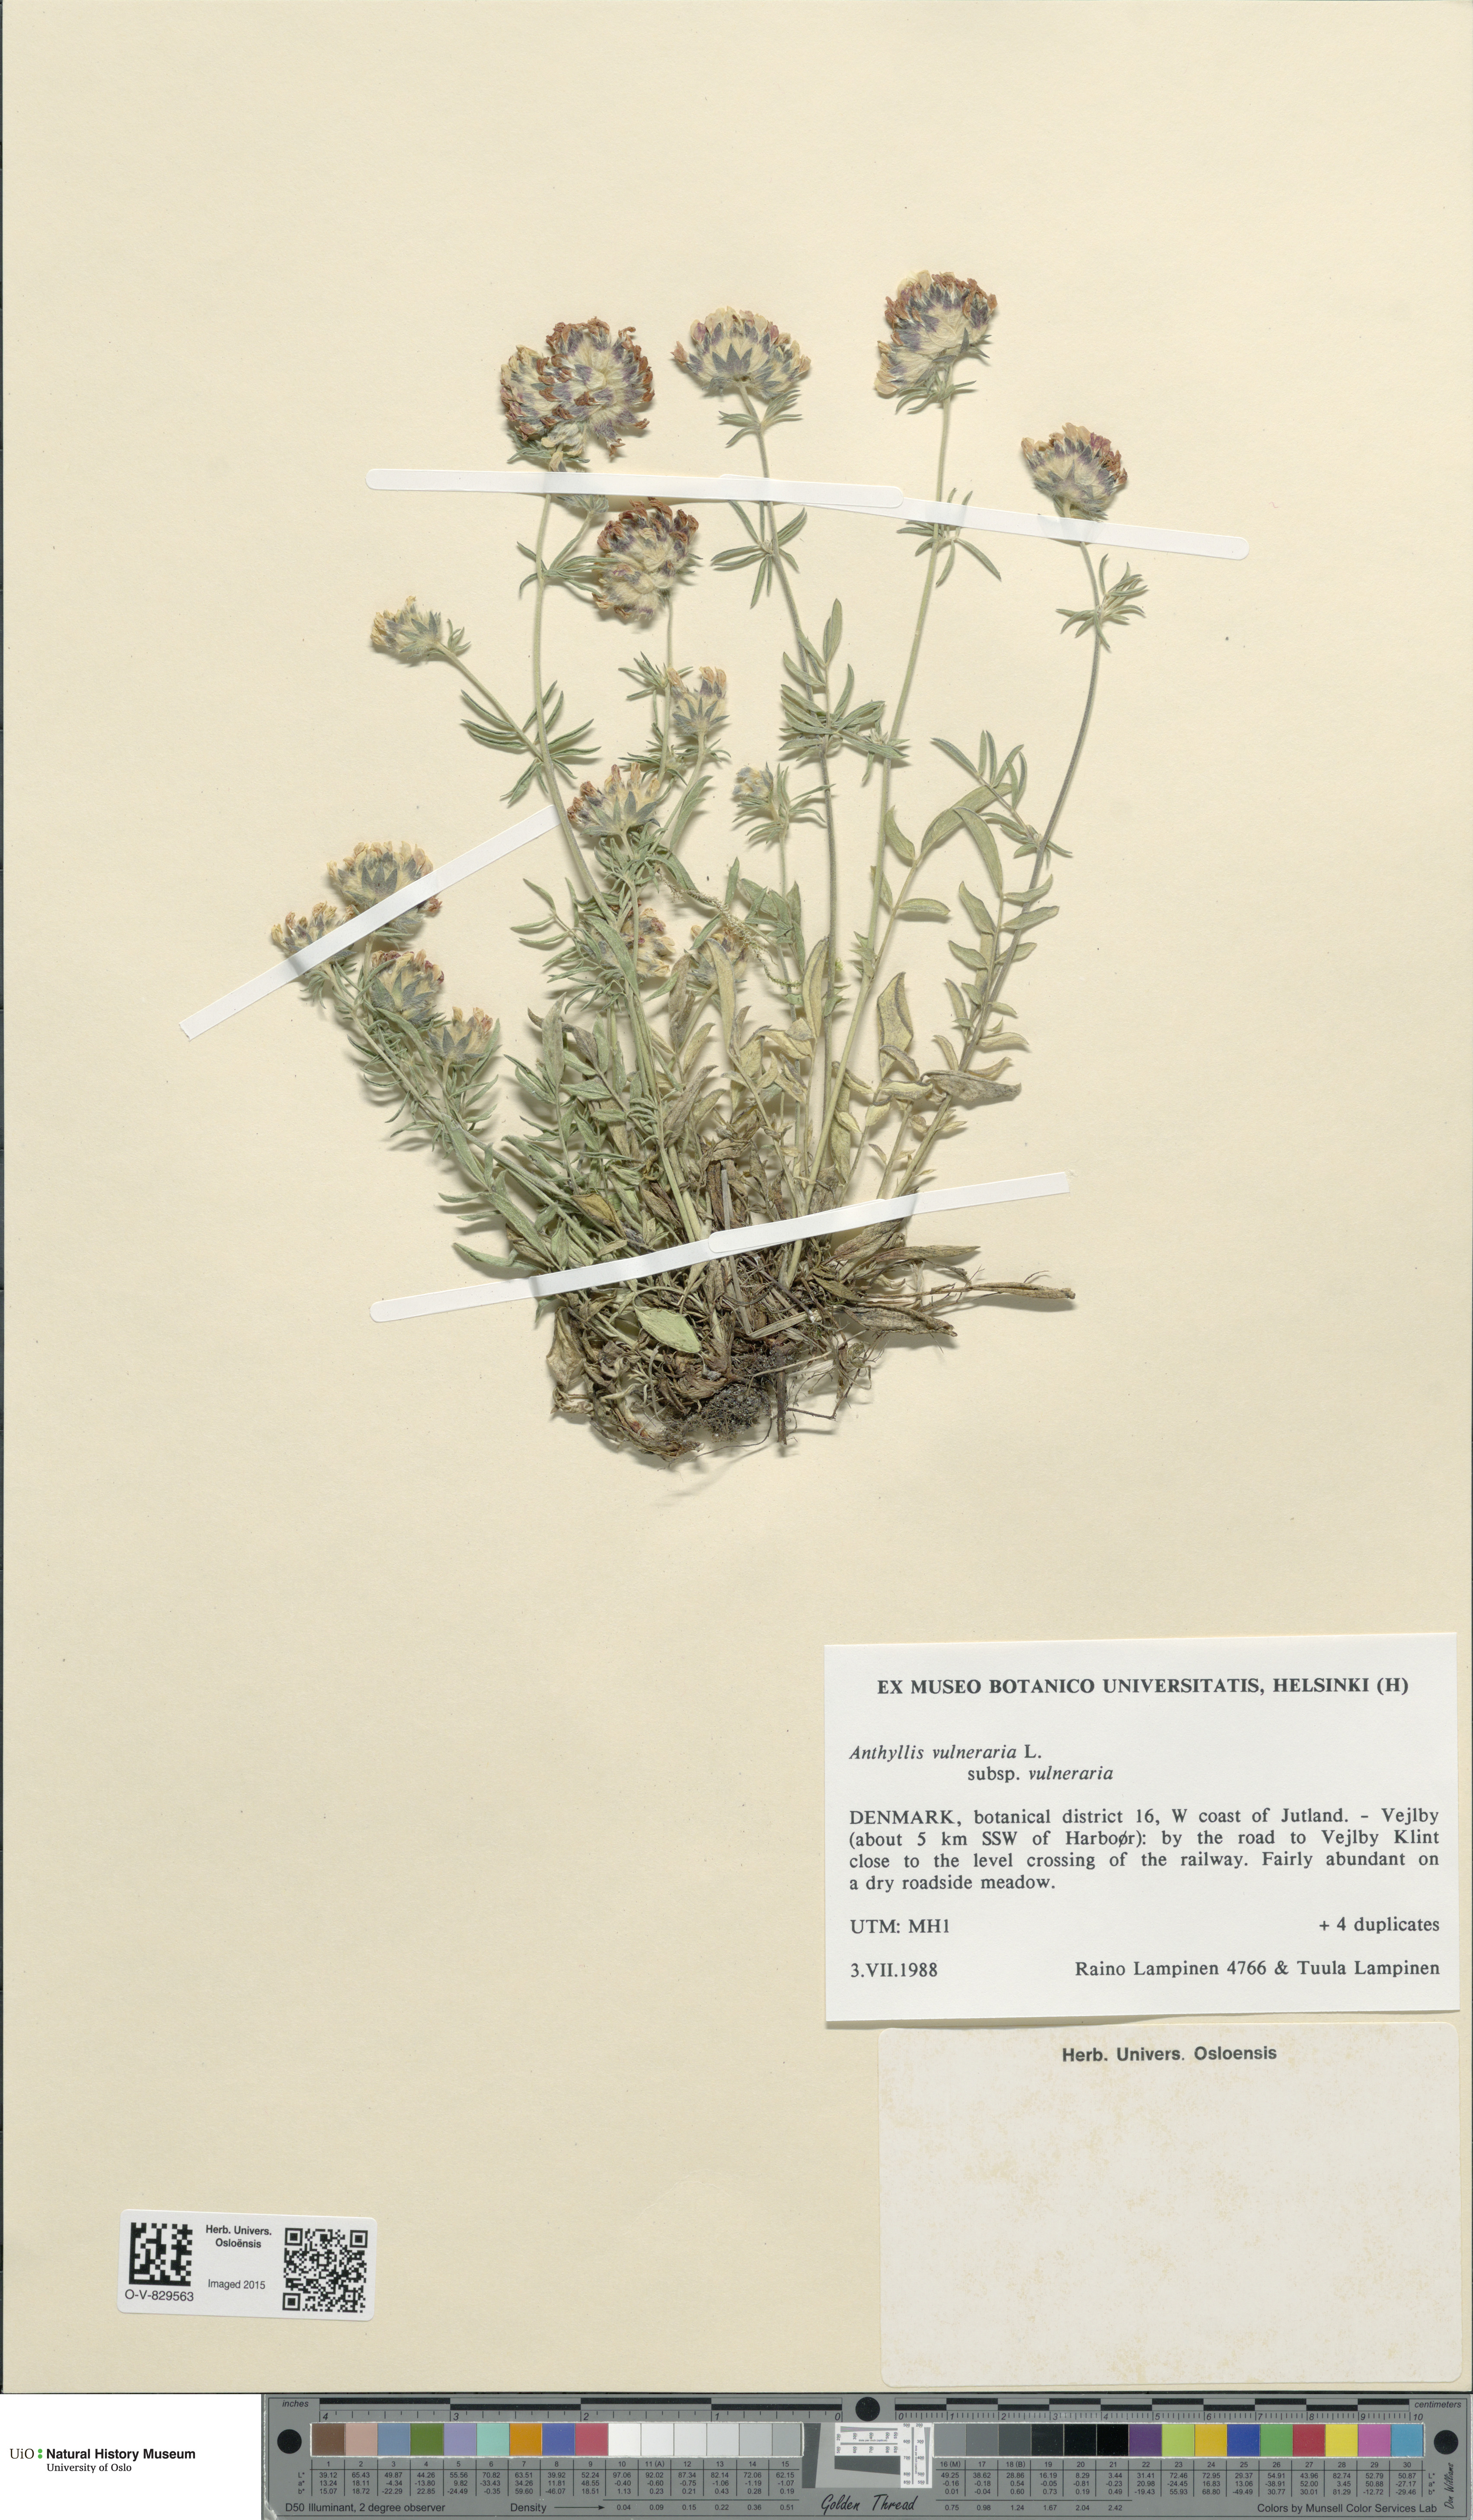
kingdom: Plantae
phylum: Tracheophyta
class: Magnoliopsida
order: Fabales
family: Fabaceae
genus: Anthyllis
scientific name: Anthyllis vulneraria
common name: Kidney vetch
